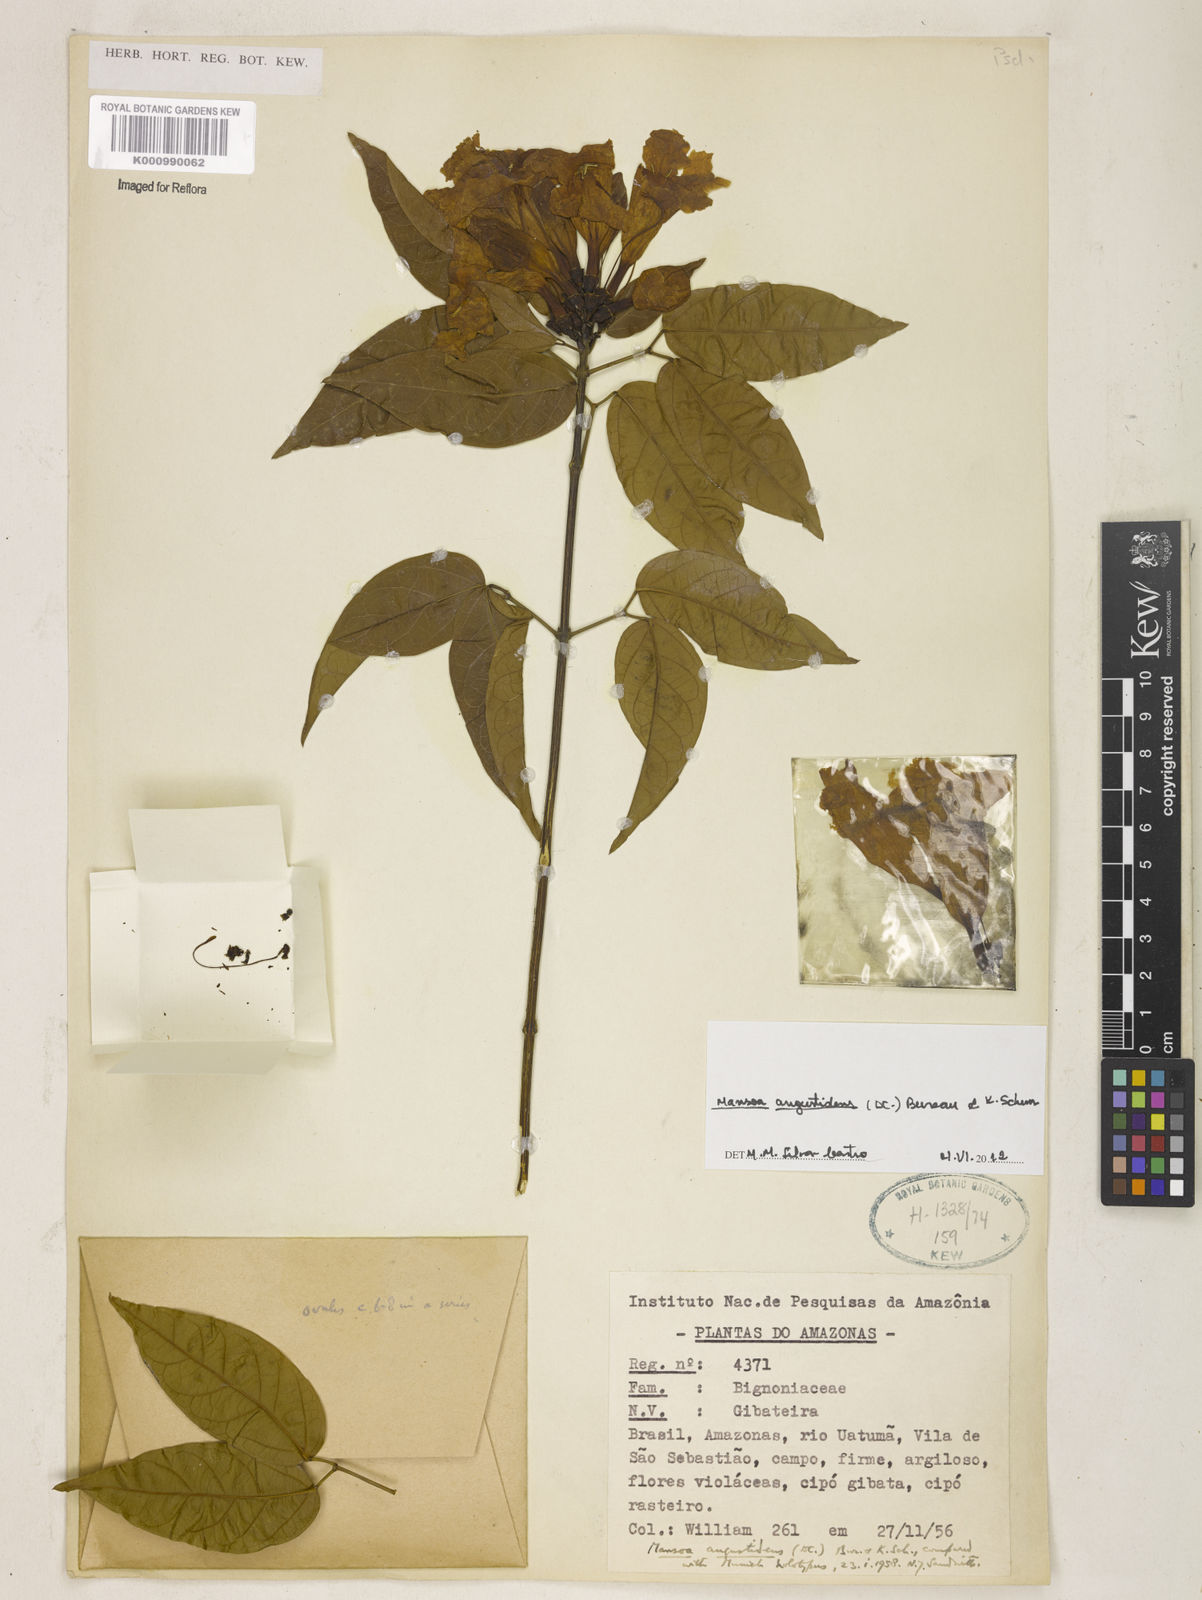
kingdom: Plantae
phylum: Tracheophyta
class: Magnoliopsida
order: Lamiales
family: Bignoniaceae
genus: Mansoa
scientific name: Mansoa angustidens
